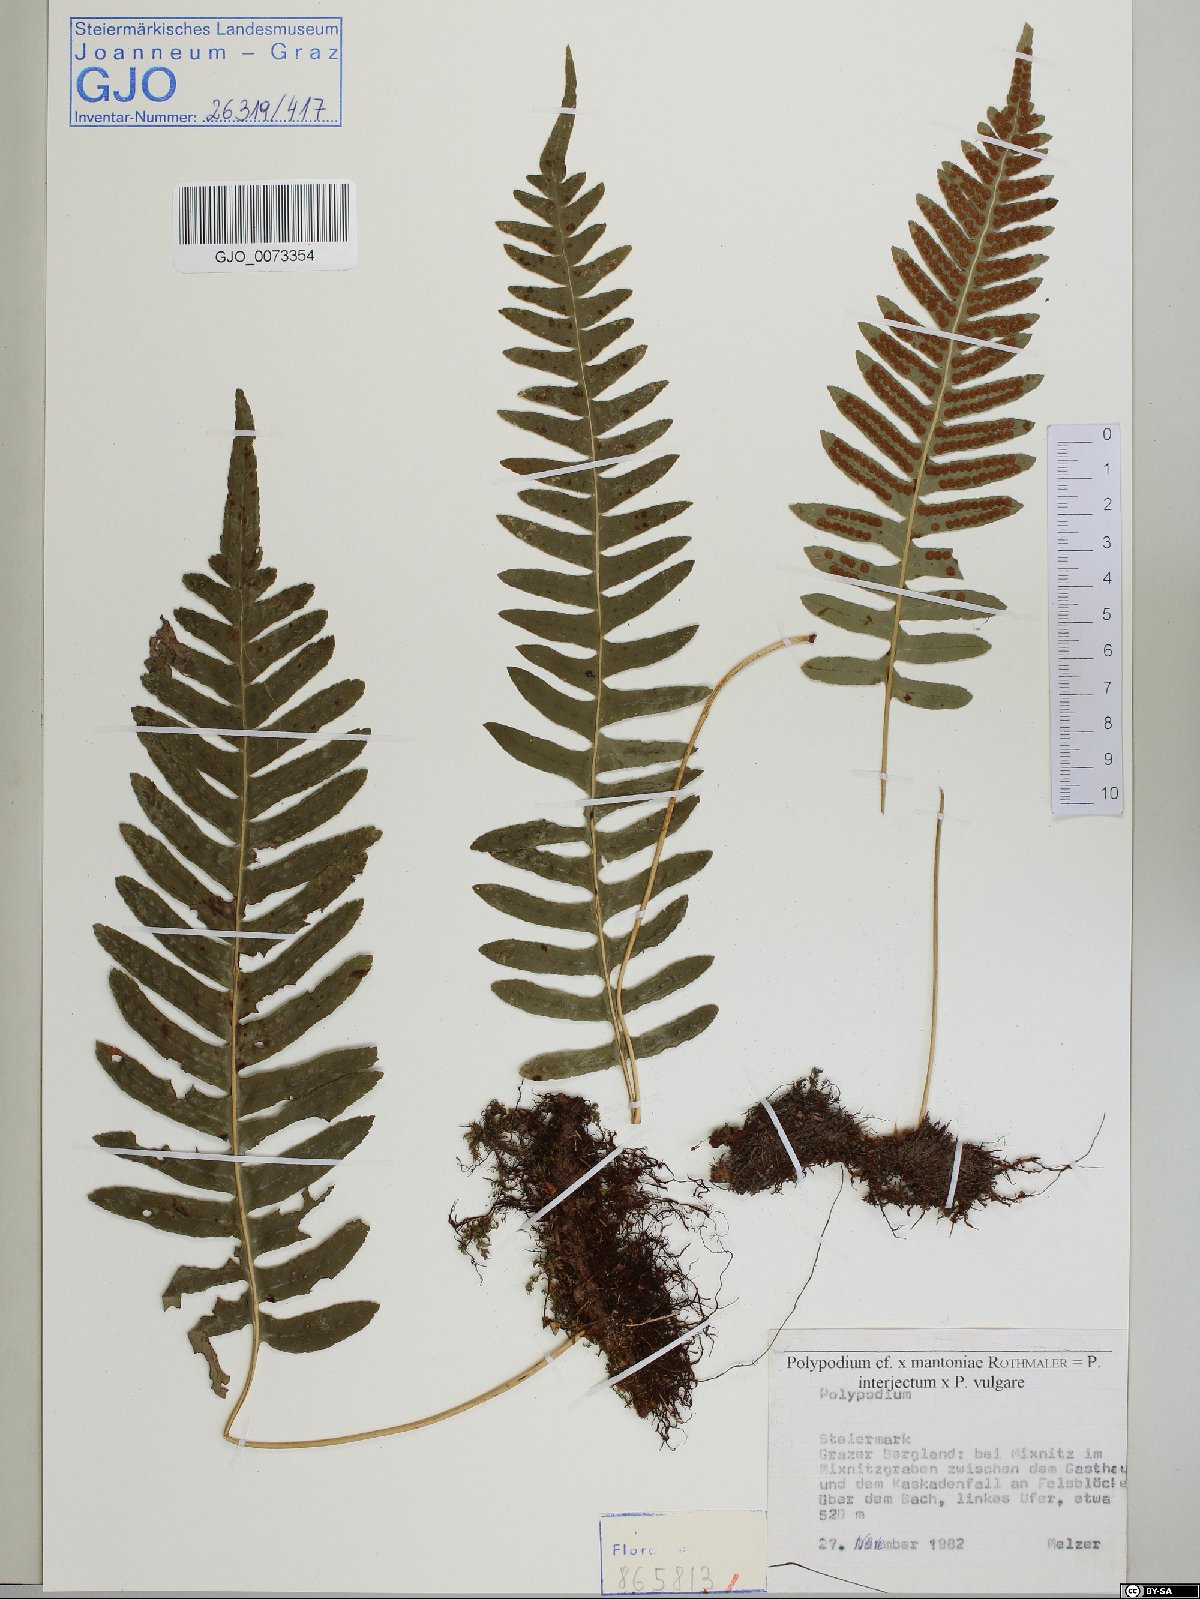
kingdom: Plantae
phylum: Tracheophyta
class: Polypodiopsida
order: Polypodiales
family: Polypodiaceae
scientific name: Polypodiaceae
